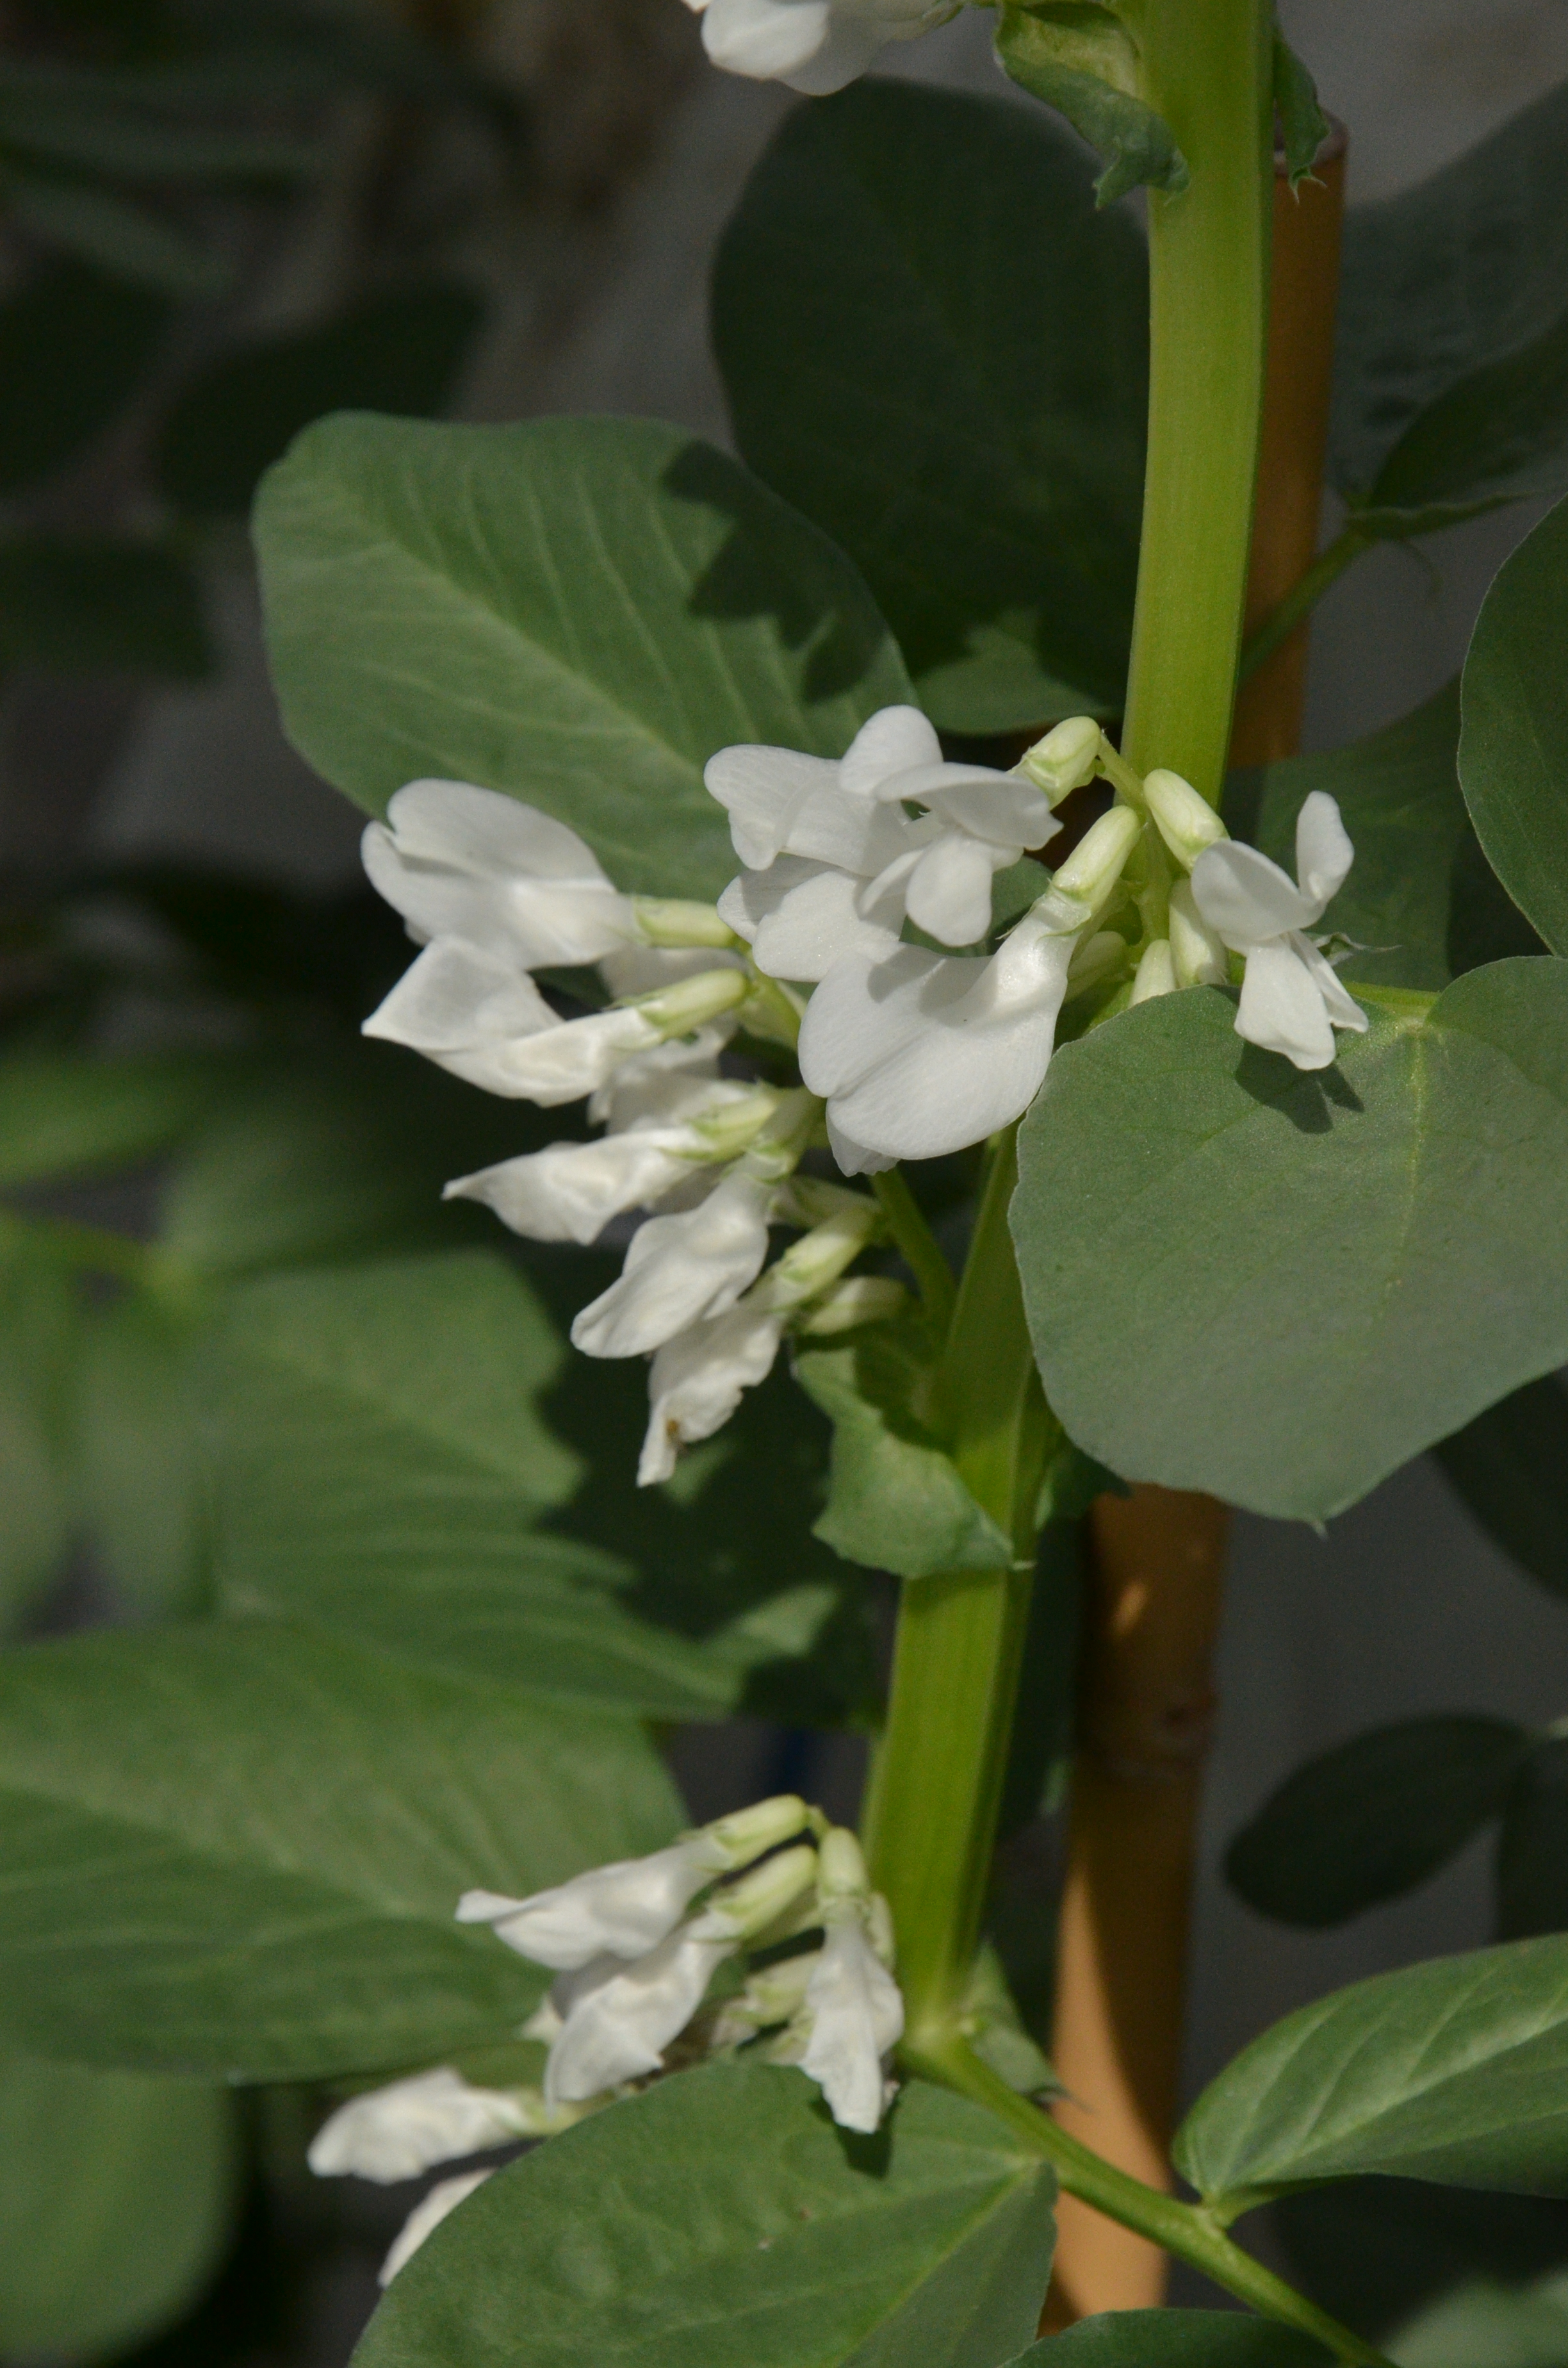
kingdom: Plantae
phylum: Tracheophyta
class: Magnoliopsida
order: Fabales
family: Fabaceae
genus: Vicia
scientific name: Vicia faba
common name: Broad bean
